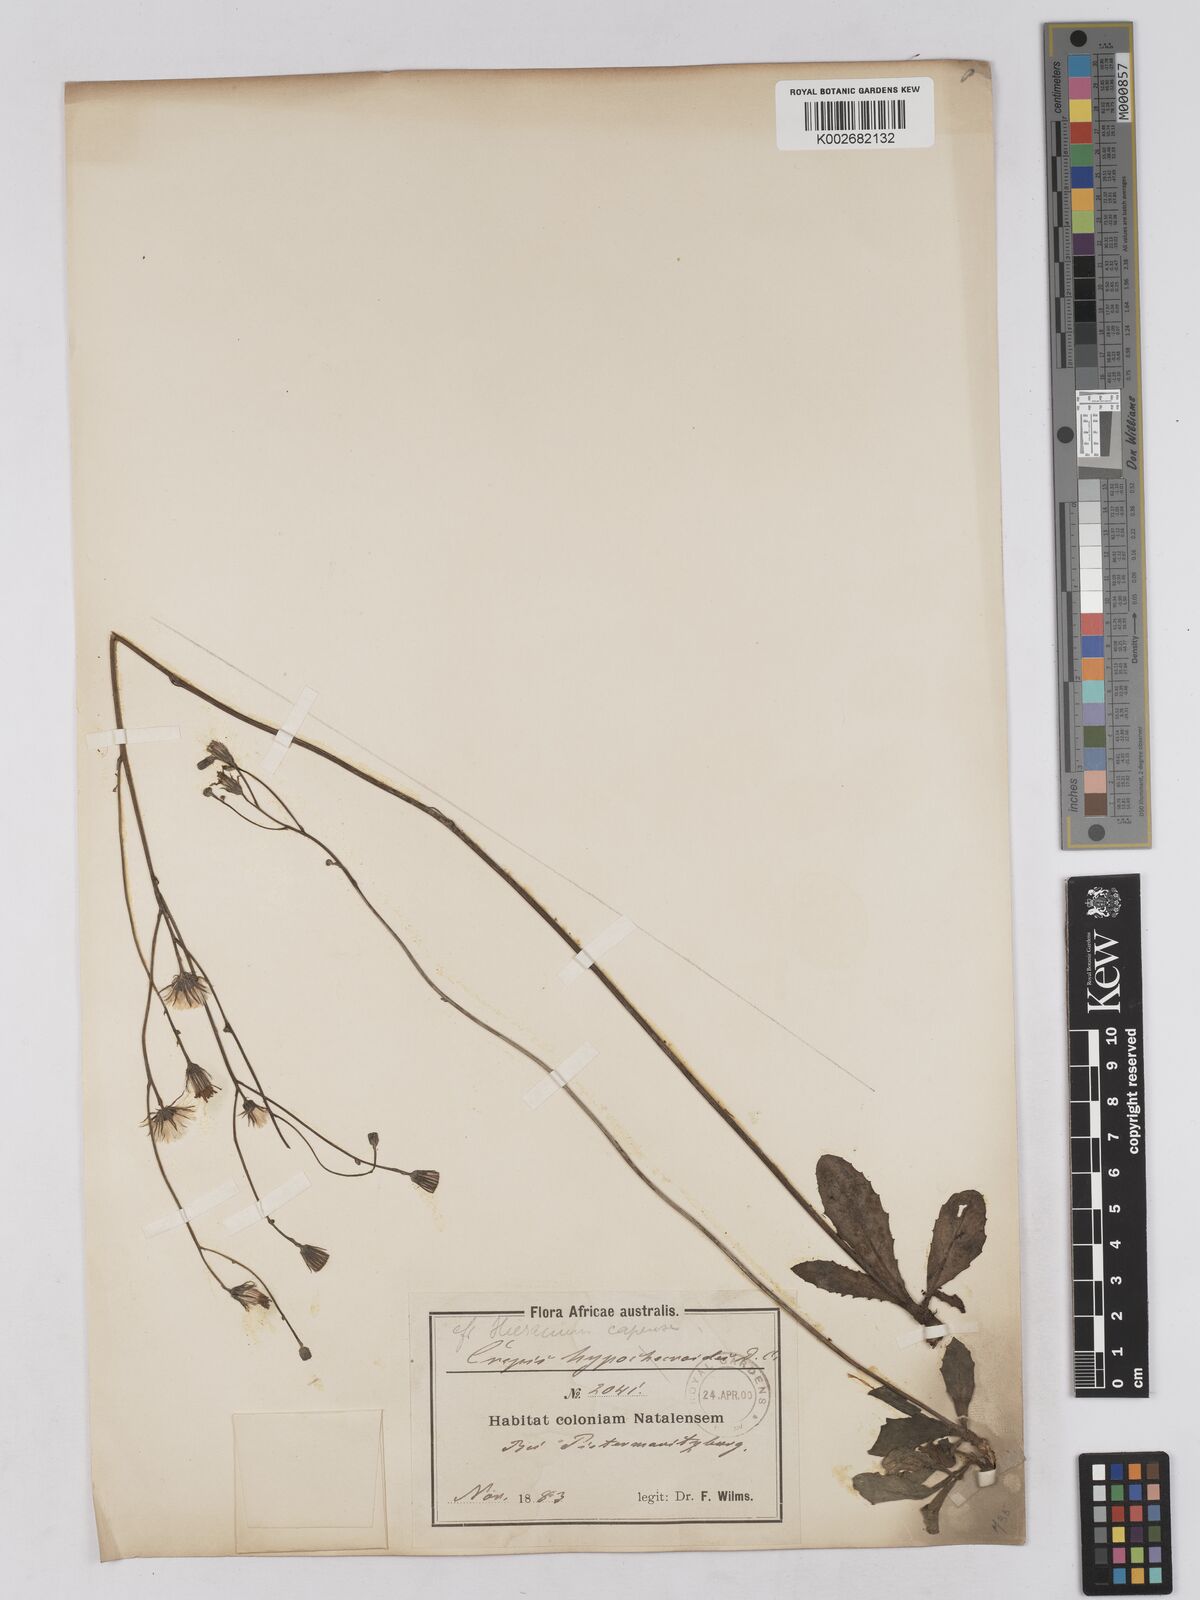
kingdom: Plantae
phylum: Tracheophyta
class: Magnoliopsida
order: Asterales
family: Asteraceae
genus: Tolpis
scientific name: Tolpis capensis
